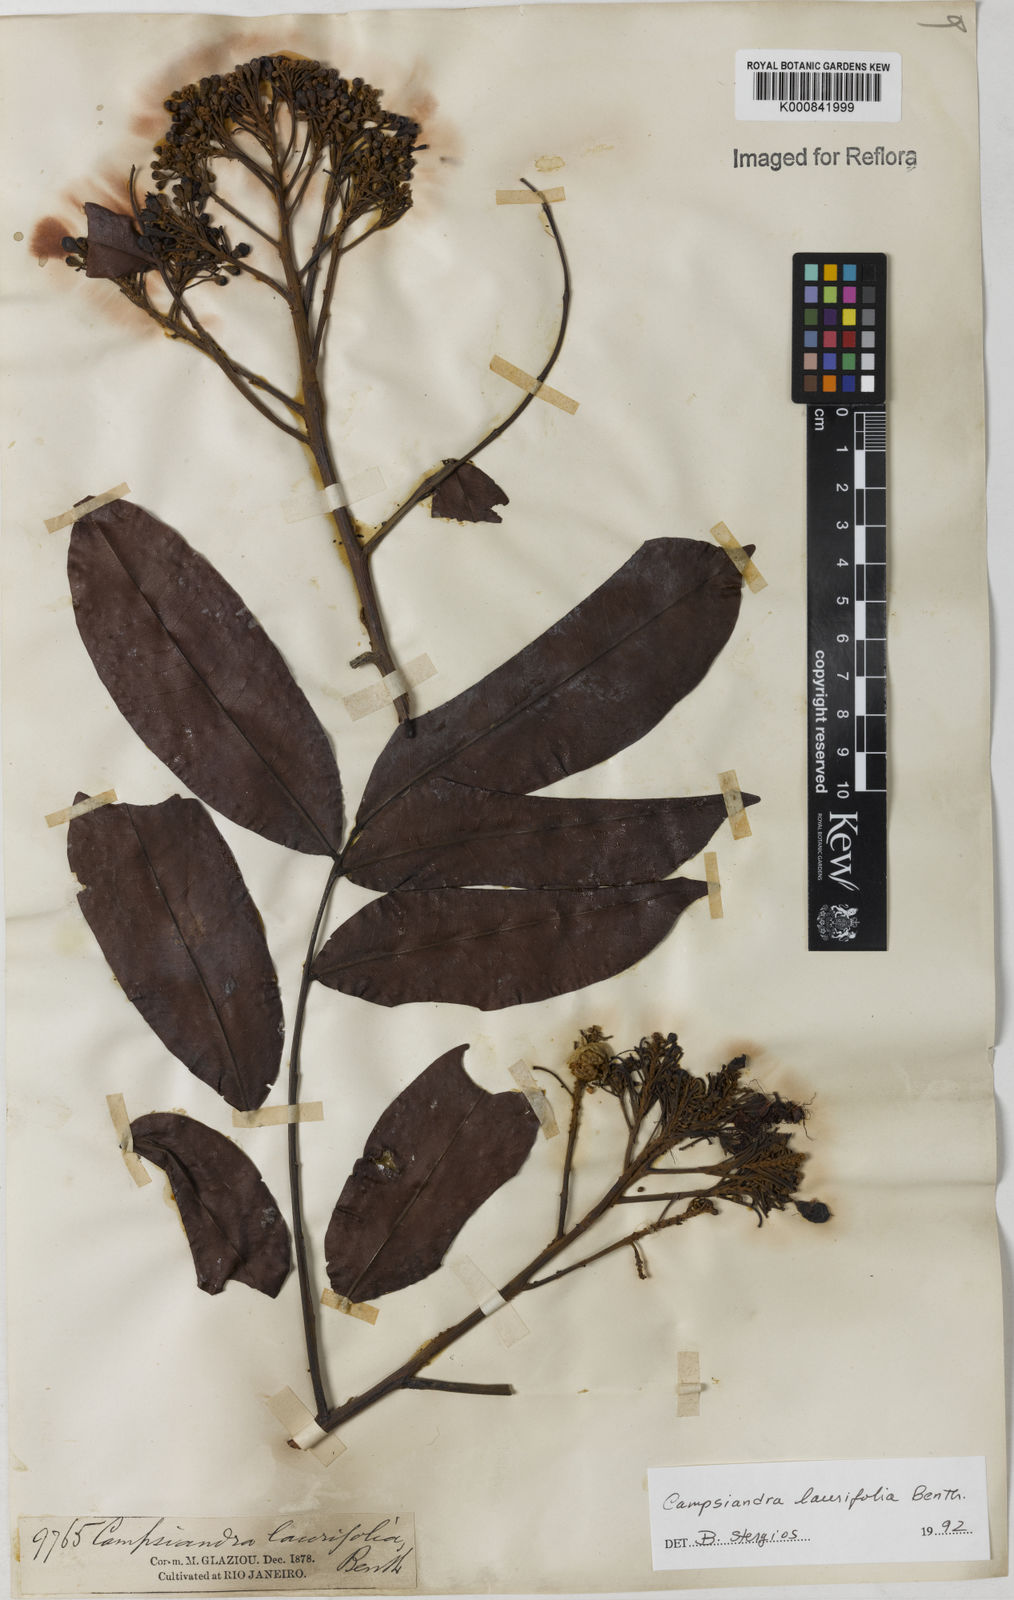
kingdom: Plantae
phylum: Tracheophyta
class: Magnoliopsida
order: Fabales
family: Fabaceae
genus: Campsiandra
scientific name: Campsiandra laurifolia
